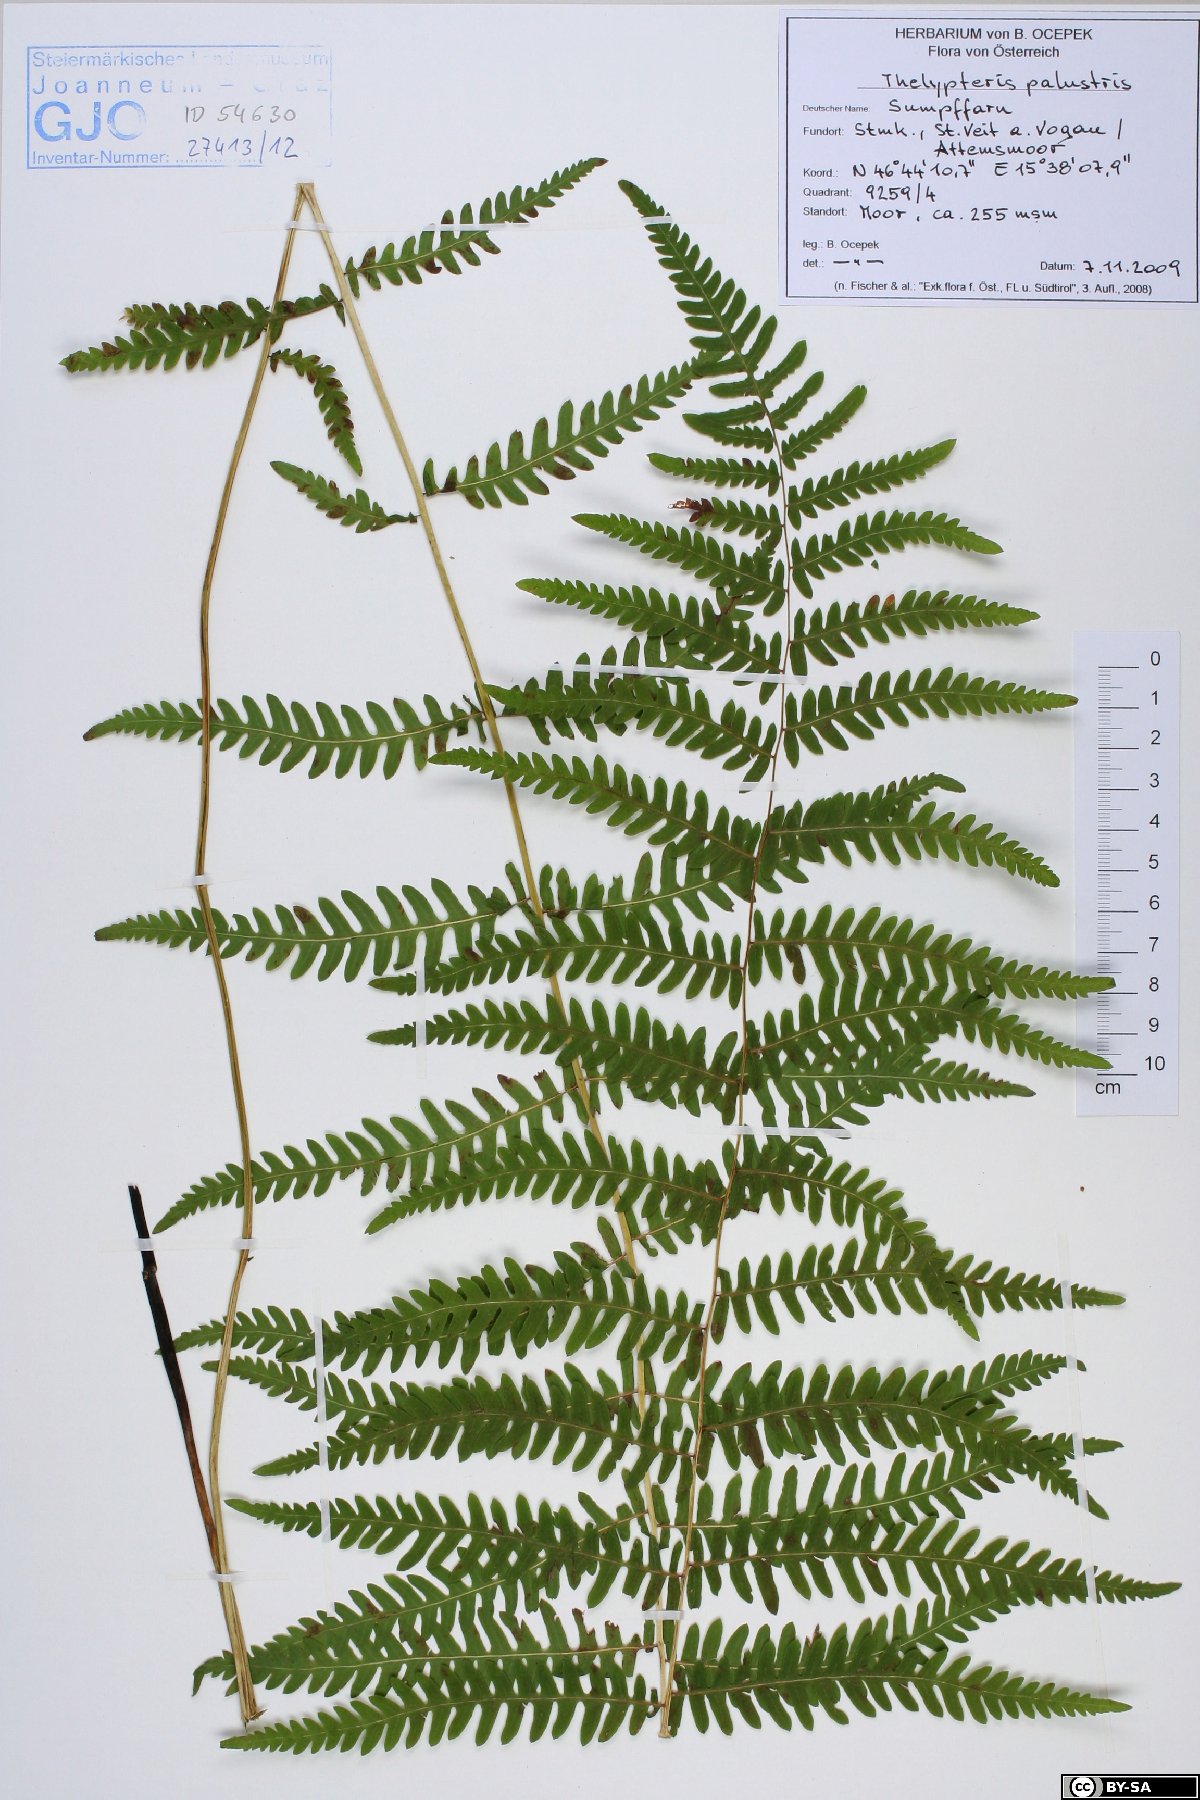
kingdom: Plantae
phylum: Tracheophyta
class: Polypodiopsida
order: Polypodiales
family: Thelypteridaceae
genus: Thelypteris
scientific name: Thelypteris palustris
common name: Marsh fern
